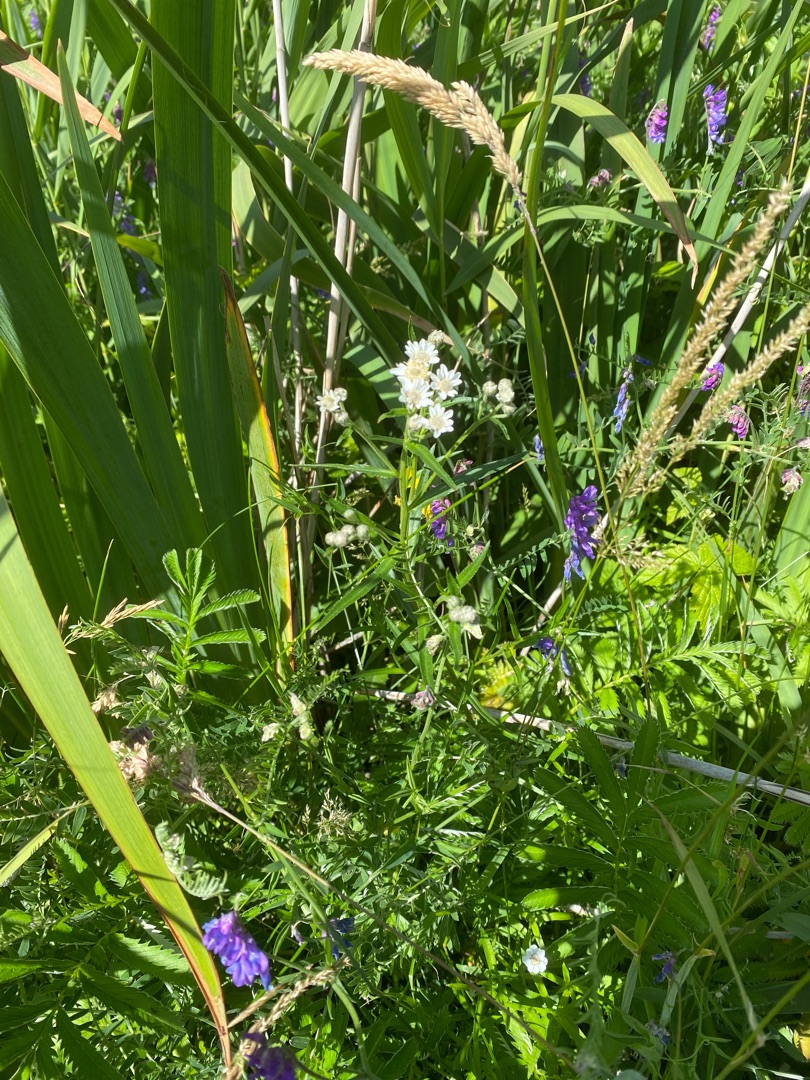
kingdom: Plantae
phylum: Tracheophyta
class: Magnoliopsida
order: Asterales
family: Asteraceae
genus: Achillea
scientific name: Achillea ptarmica
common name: Nyse-røllike
